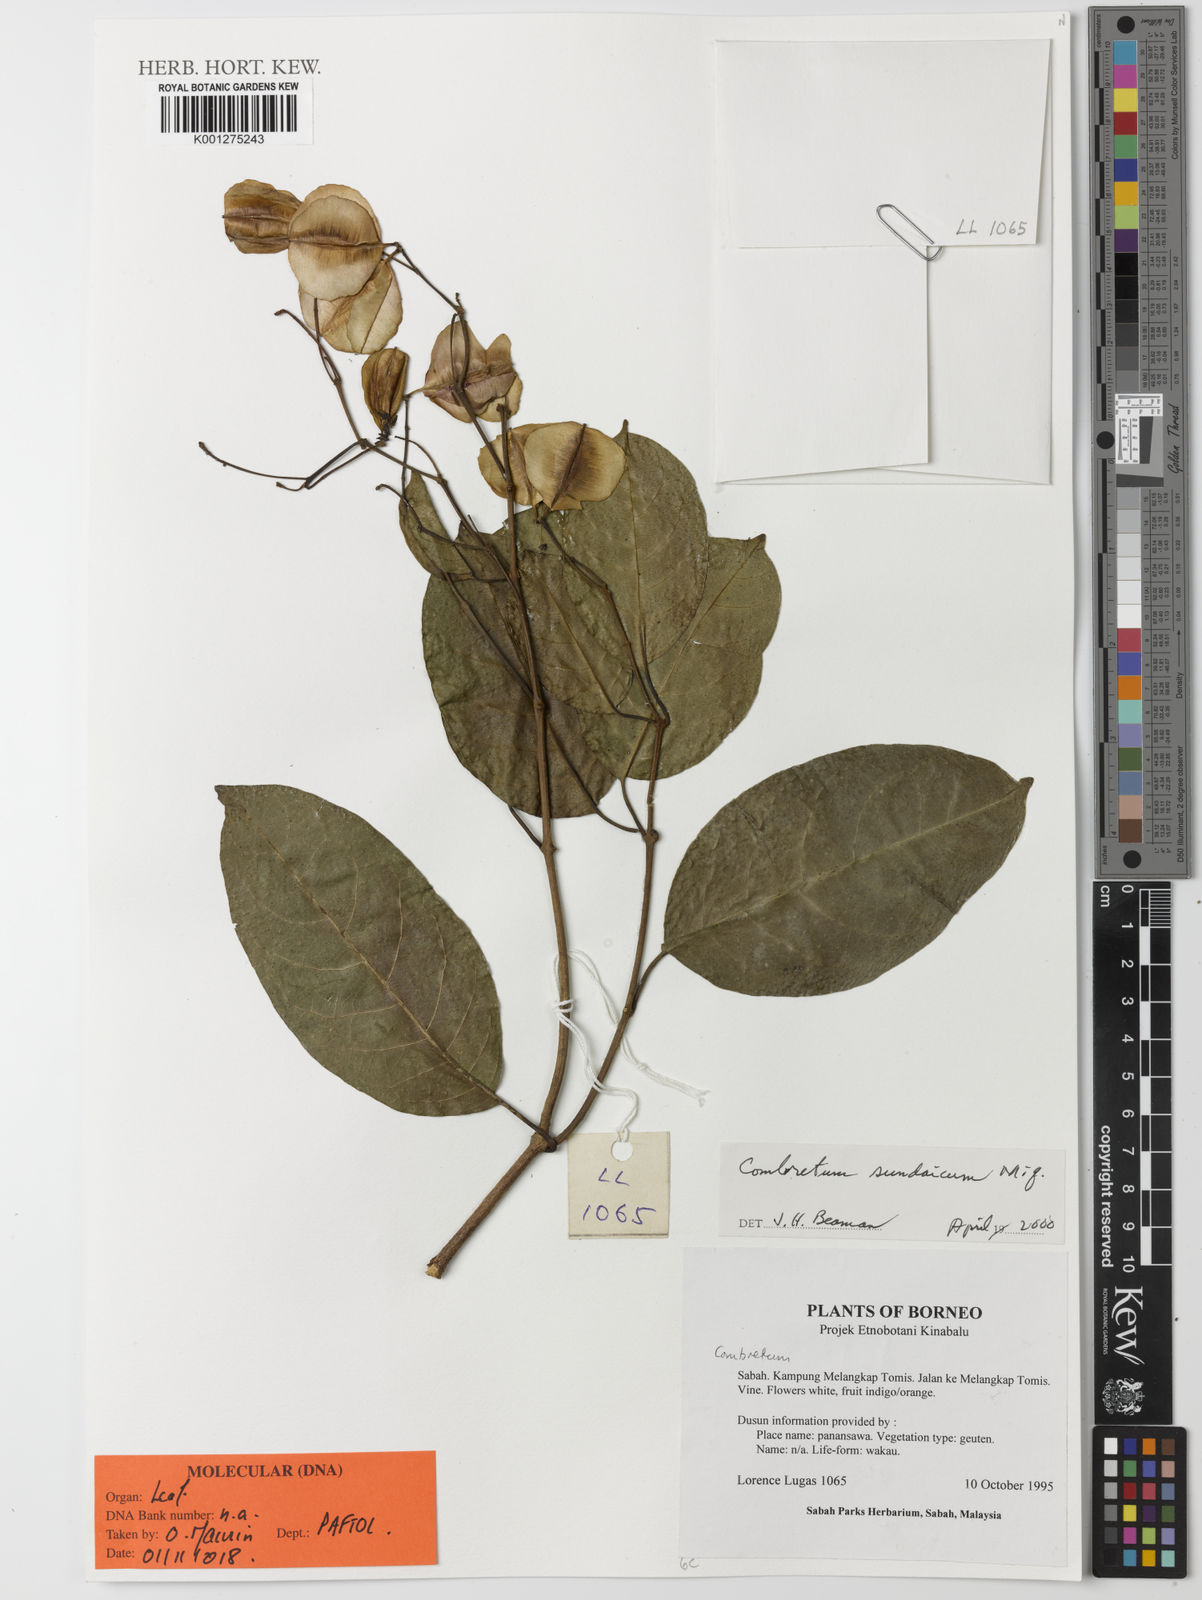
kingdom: Plantae
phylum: Tracheophyta
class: Magnoliopsida
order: Myrtales
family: Combretaceae
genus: Combretum
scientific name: Combretum sundaicum
